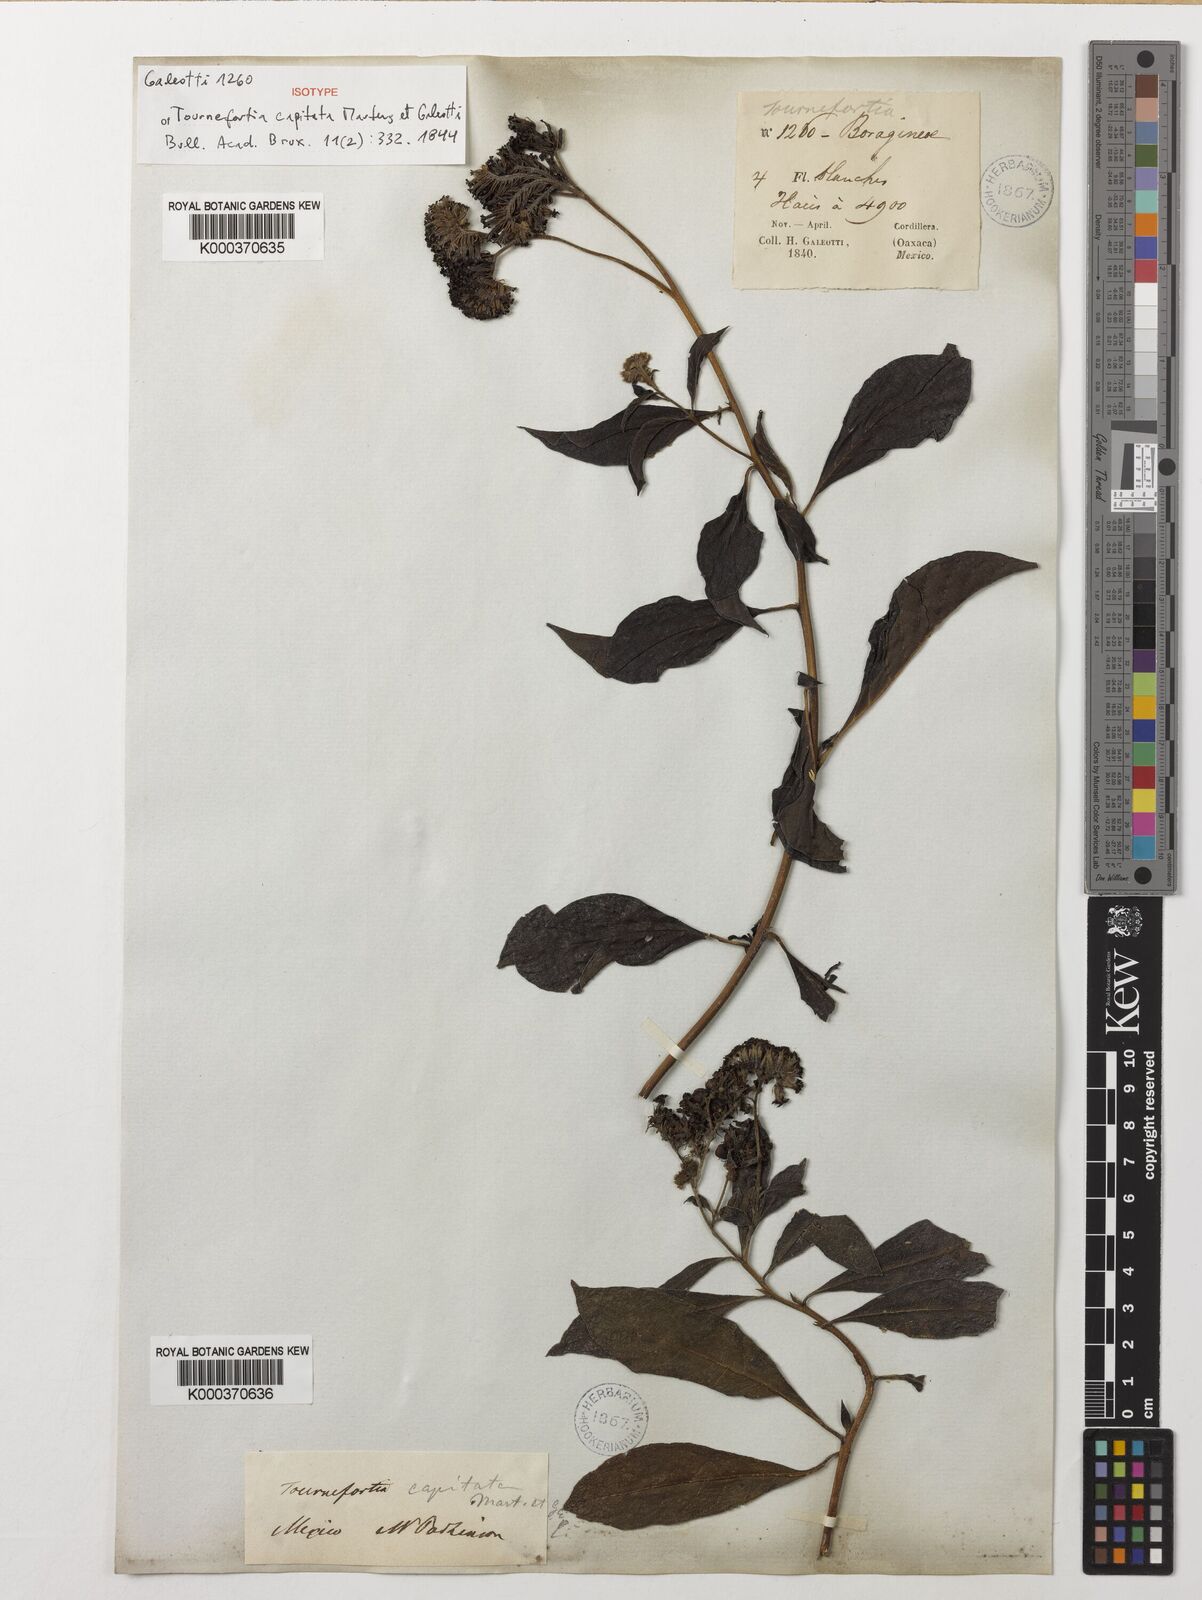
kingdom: Plantae
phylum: Tracheophyta
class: Magnoliopsida
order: Boraginales
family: Heliotropiaceae
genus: Tournefortia
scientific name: Tournefortia capitata
